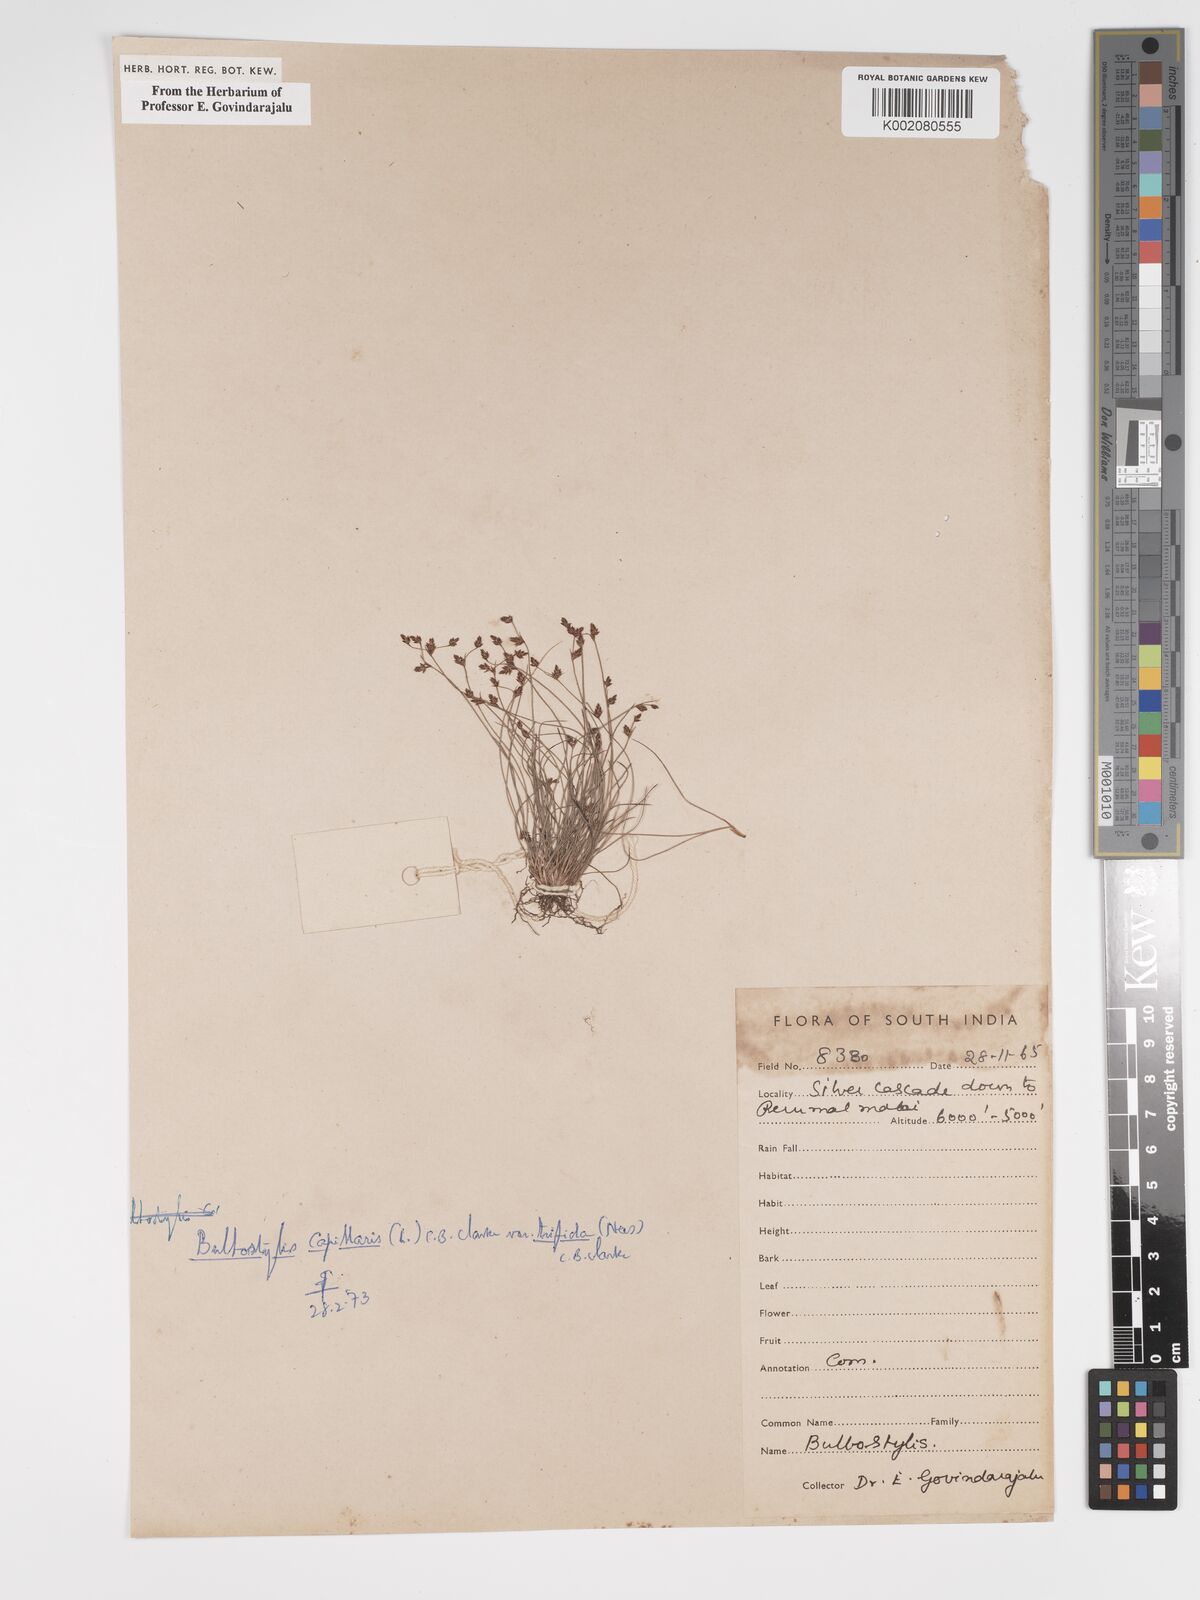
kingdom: Plantae
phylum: Tracheophyta
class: Liliopsida
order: Poales
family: Cyperaceae
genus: Bulbostylis
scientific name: Bulbostylis densa
